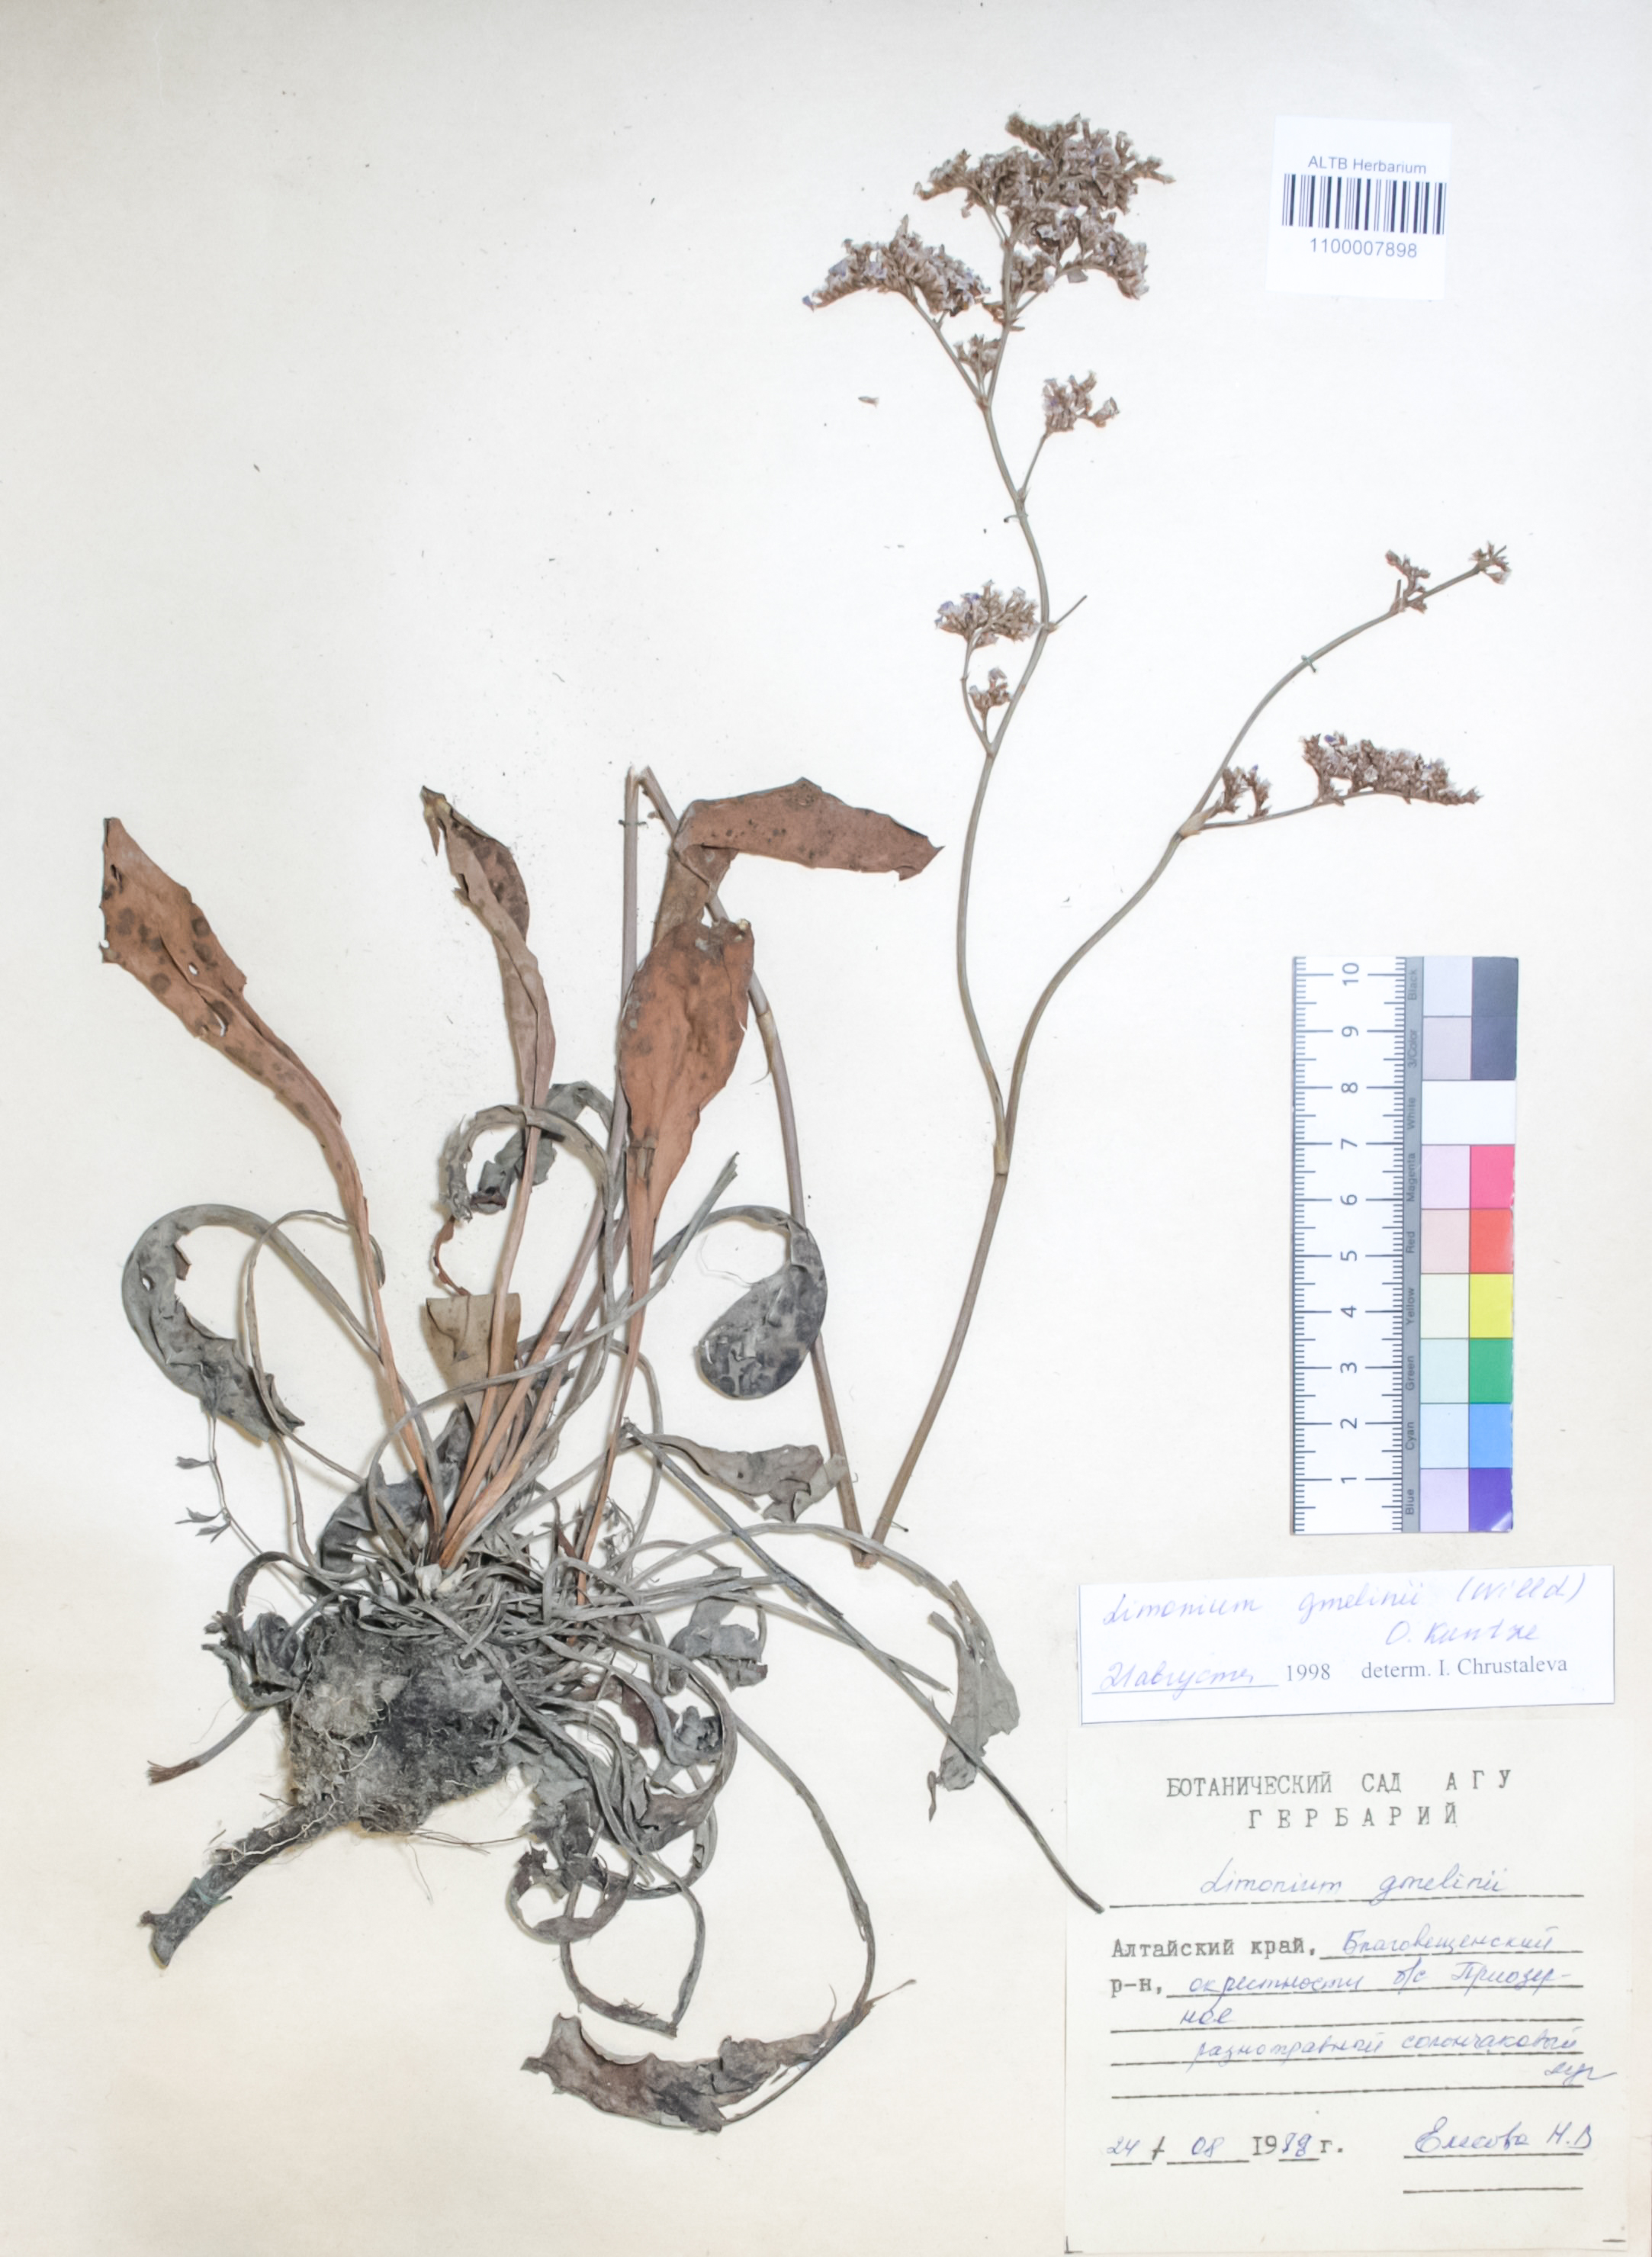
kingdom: Plantae
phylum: Tracheophyta
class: Magnoliopsida
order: Caryophyllales
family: Plumbaginaceae
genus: Limonium
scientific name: Limonium gmelini
